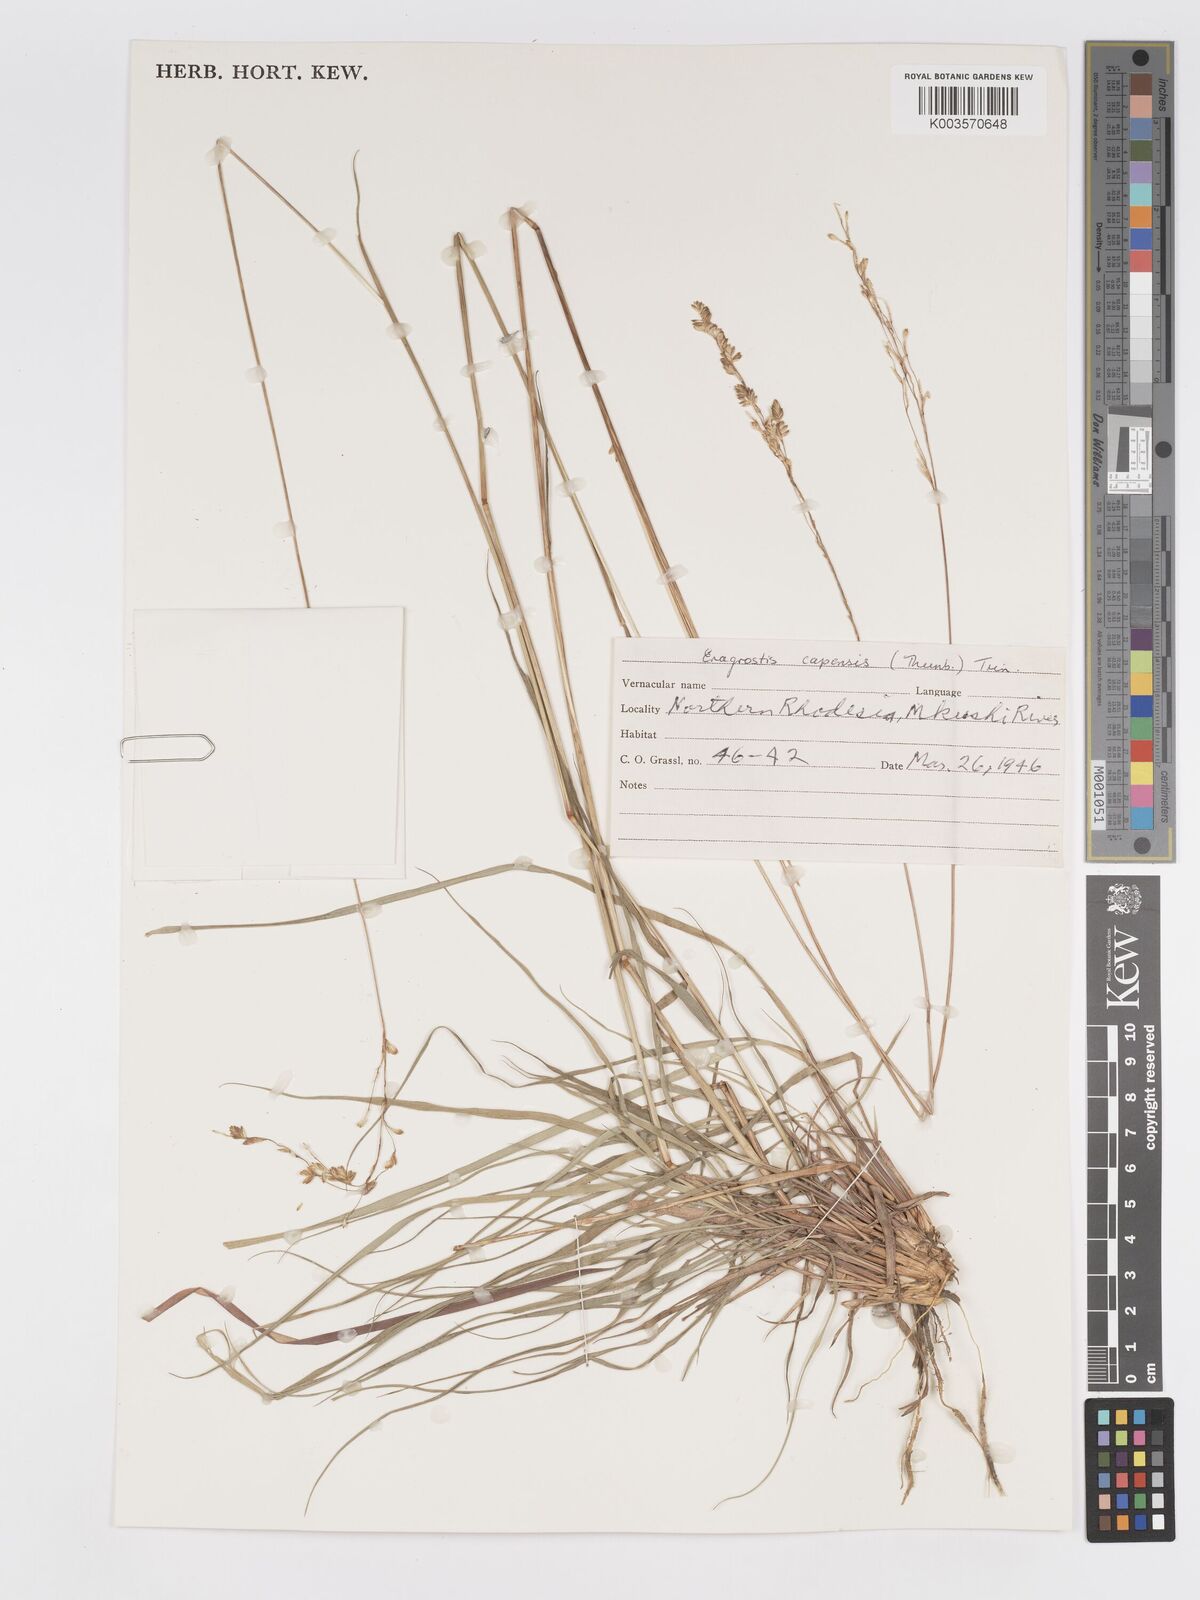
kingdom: Plantae
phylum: Tracheophyta
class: Liliopsida
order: Poales
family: Poaceae
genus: Eragrostis
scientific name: Eragrostis capensis
